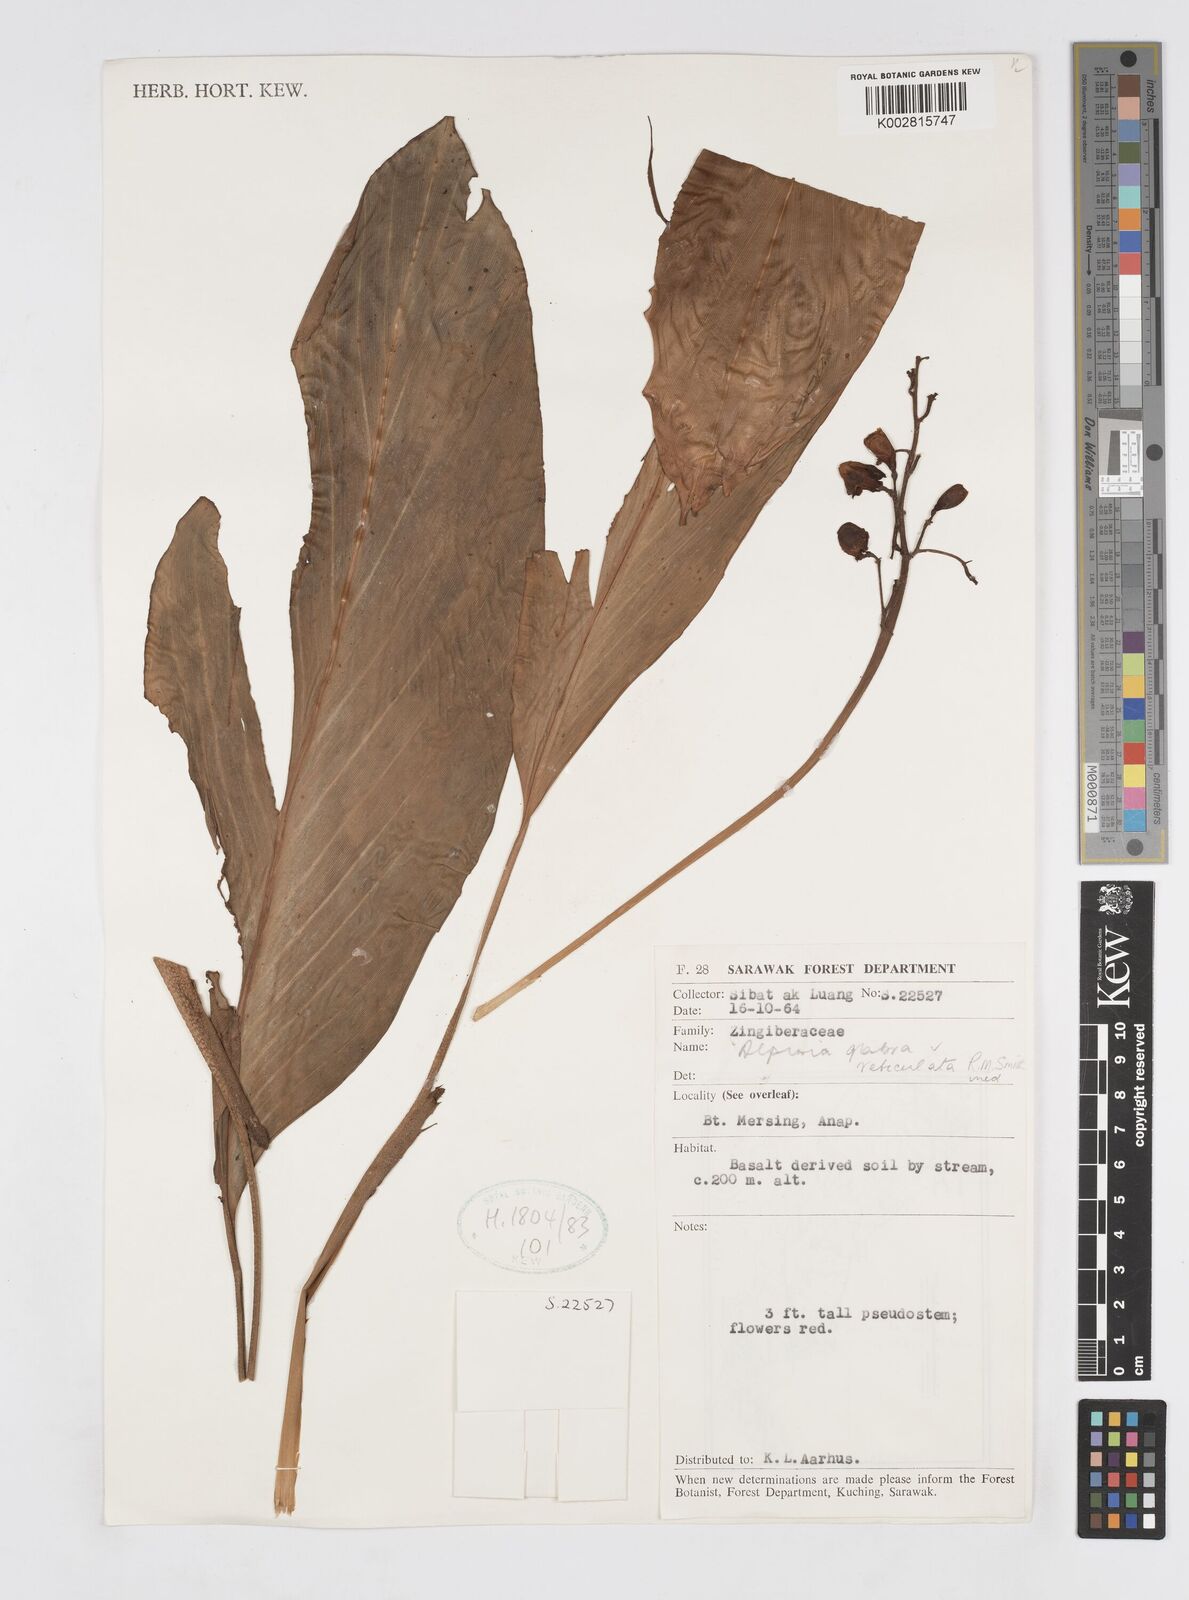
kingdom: Plantae
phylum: Tracheophyta
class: Liliopsida
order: Zingiberales
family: Zingiberaceae
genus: Alpinia
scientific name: Alpinia glabra
